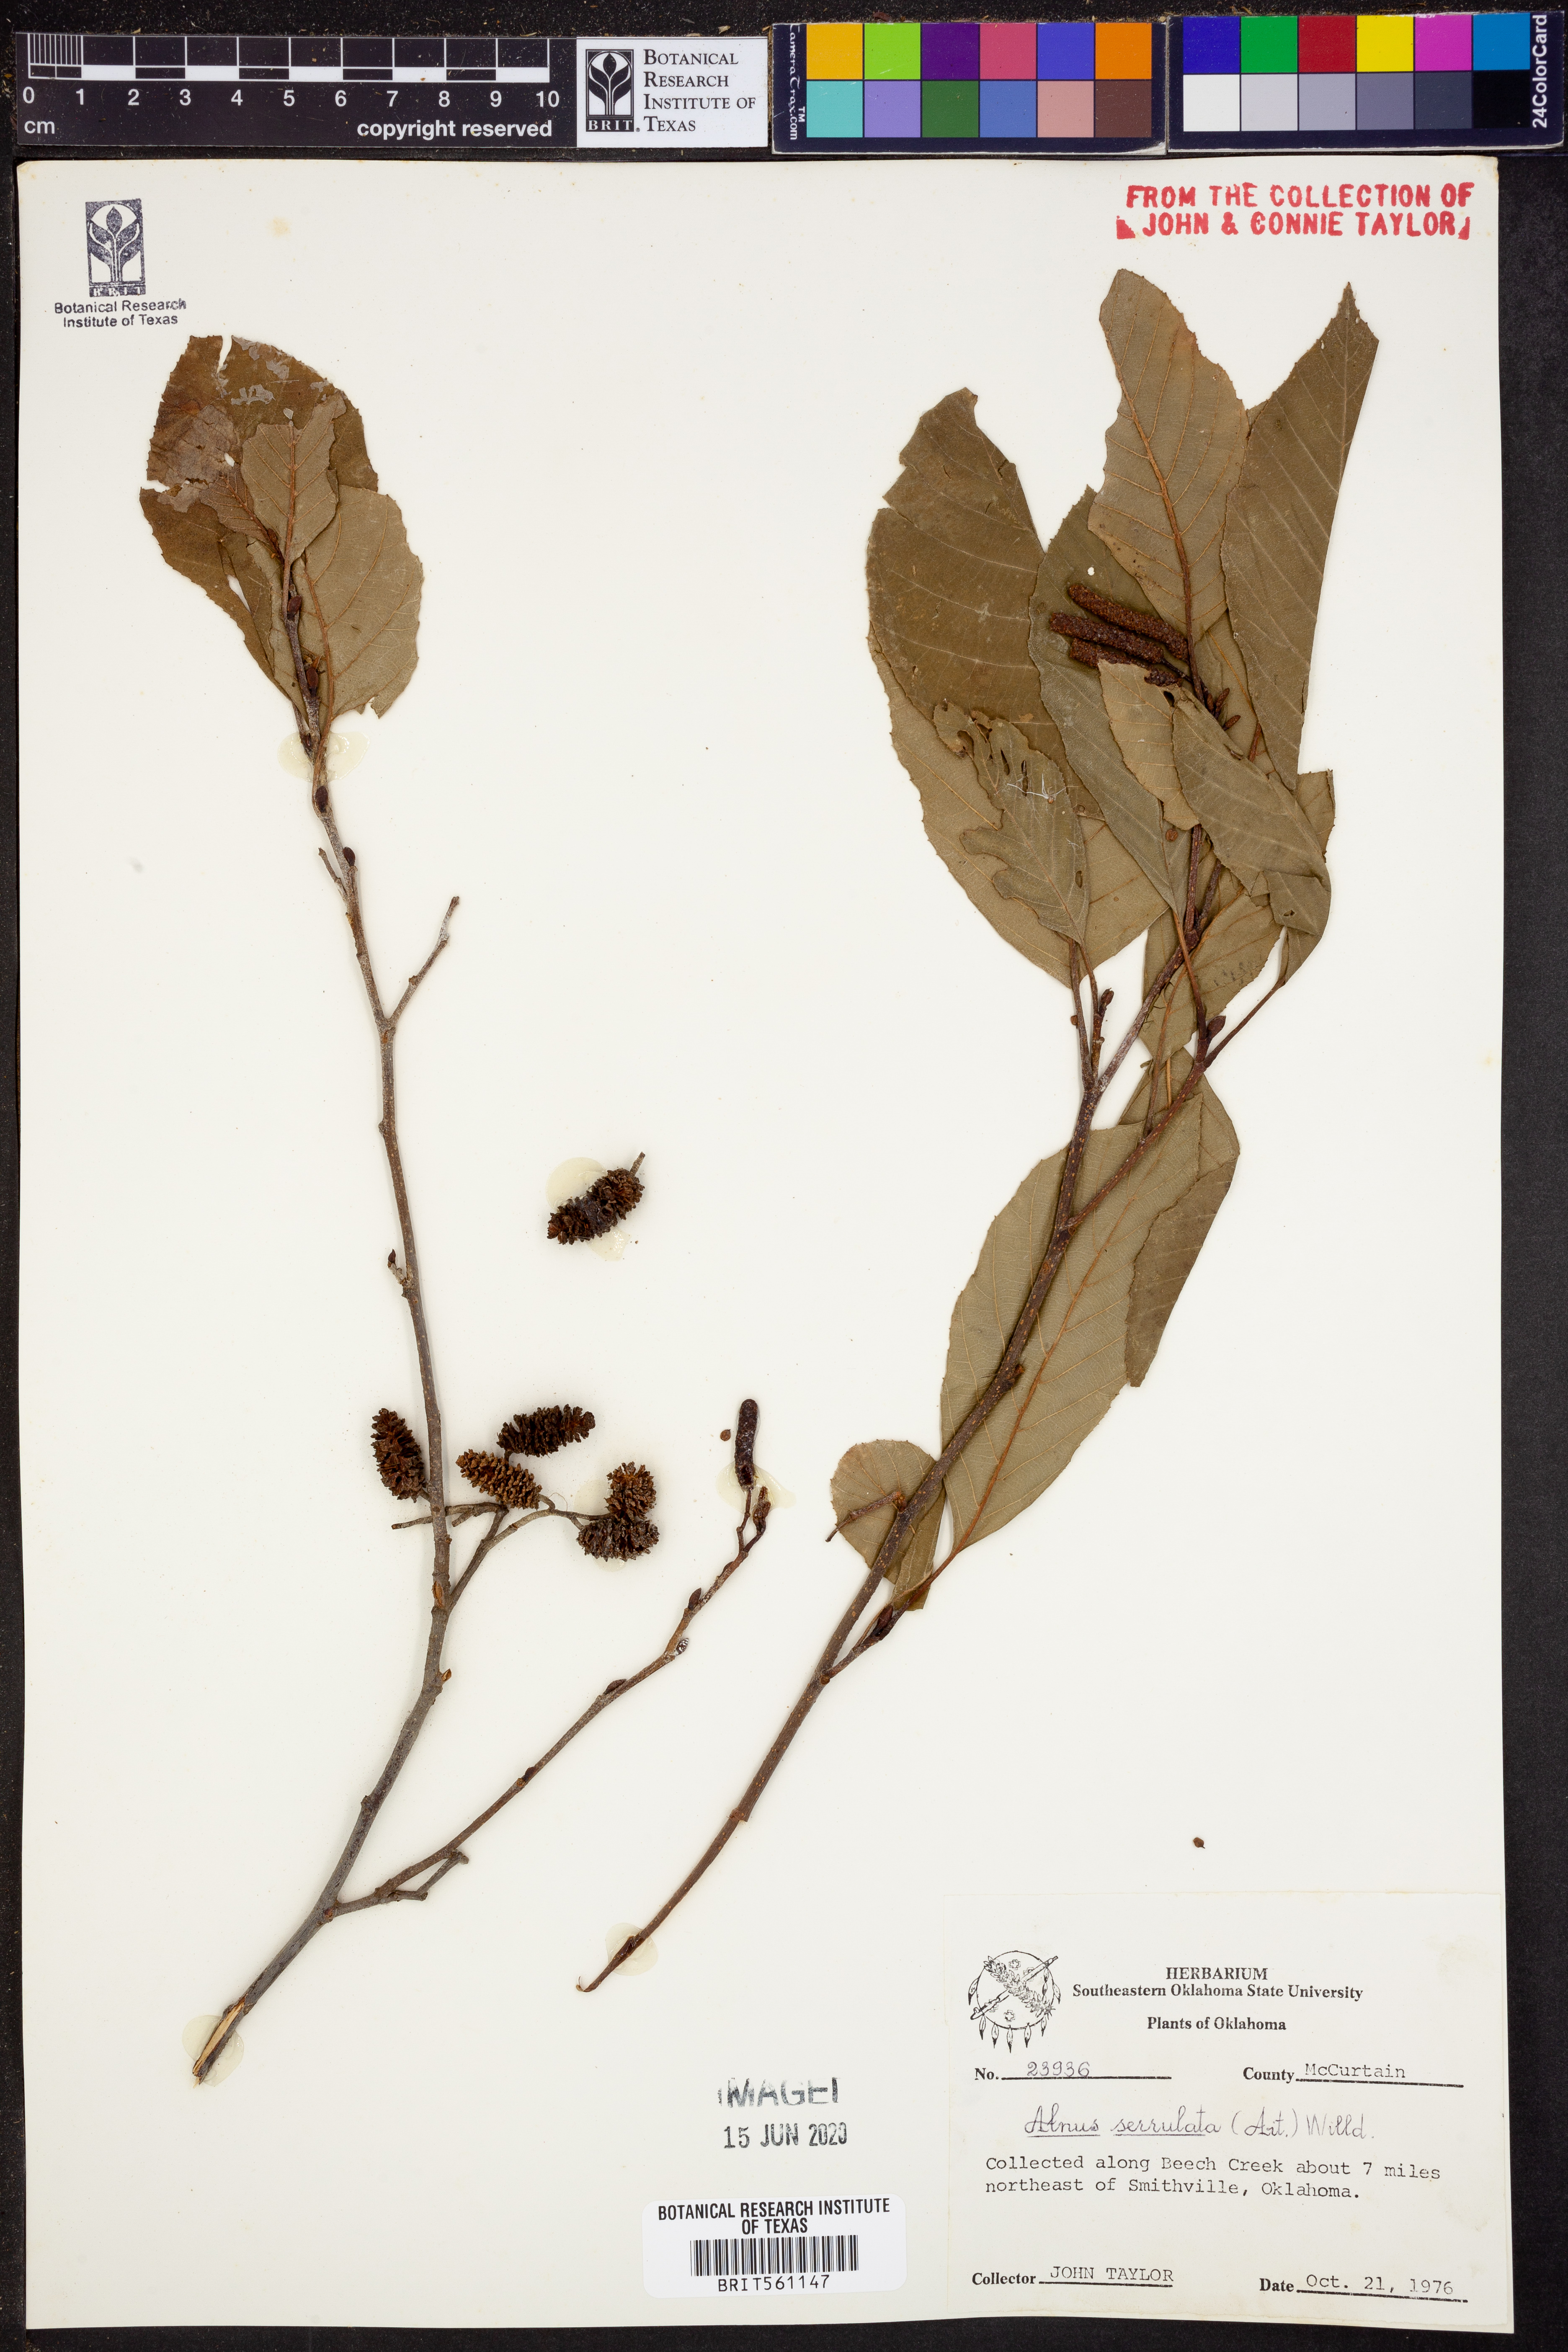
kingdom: Plantae
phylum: Tracheophyta
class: Magnoliopsida
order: Fagales
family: Betulaceae
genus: Alnus
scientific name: Alnus serrulata
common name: Hazel alder
